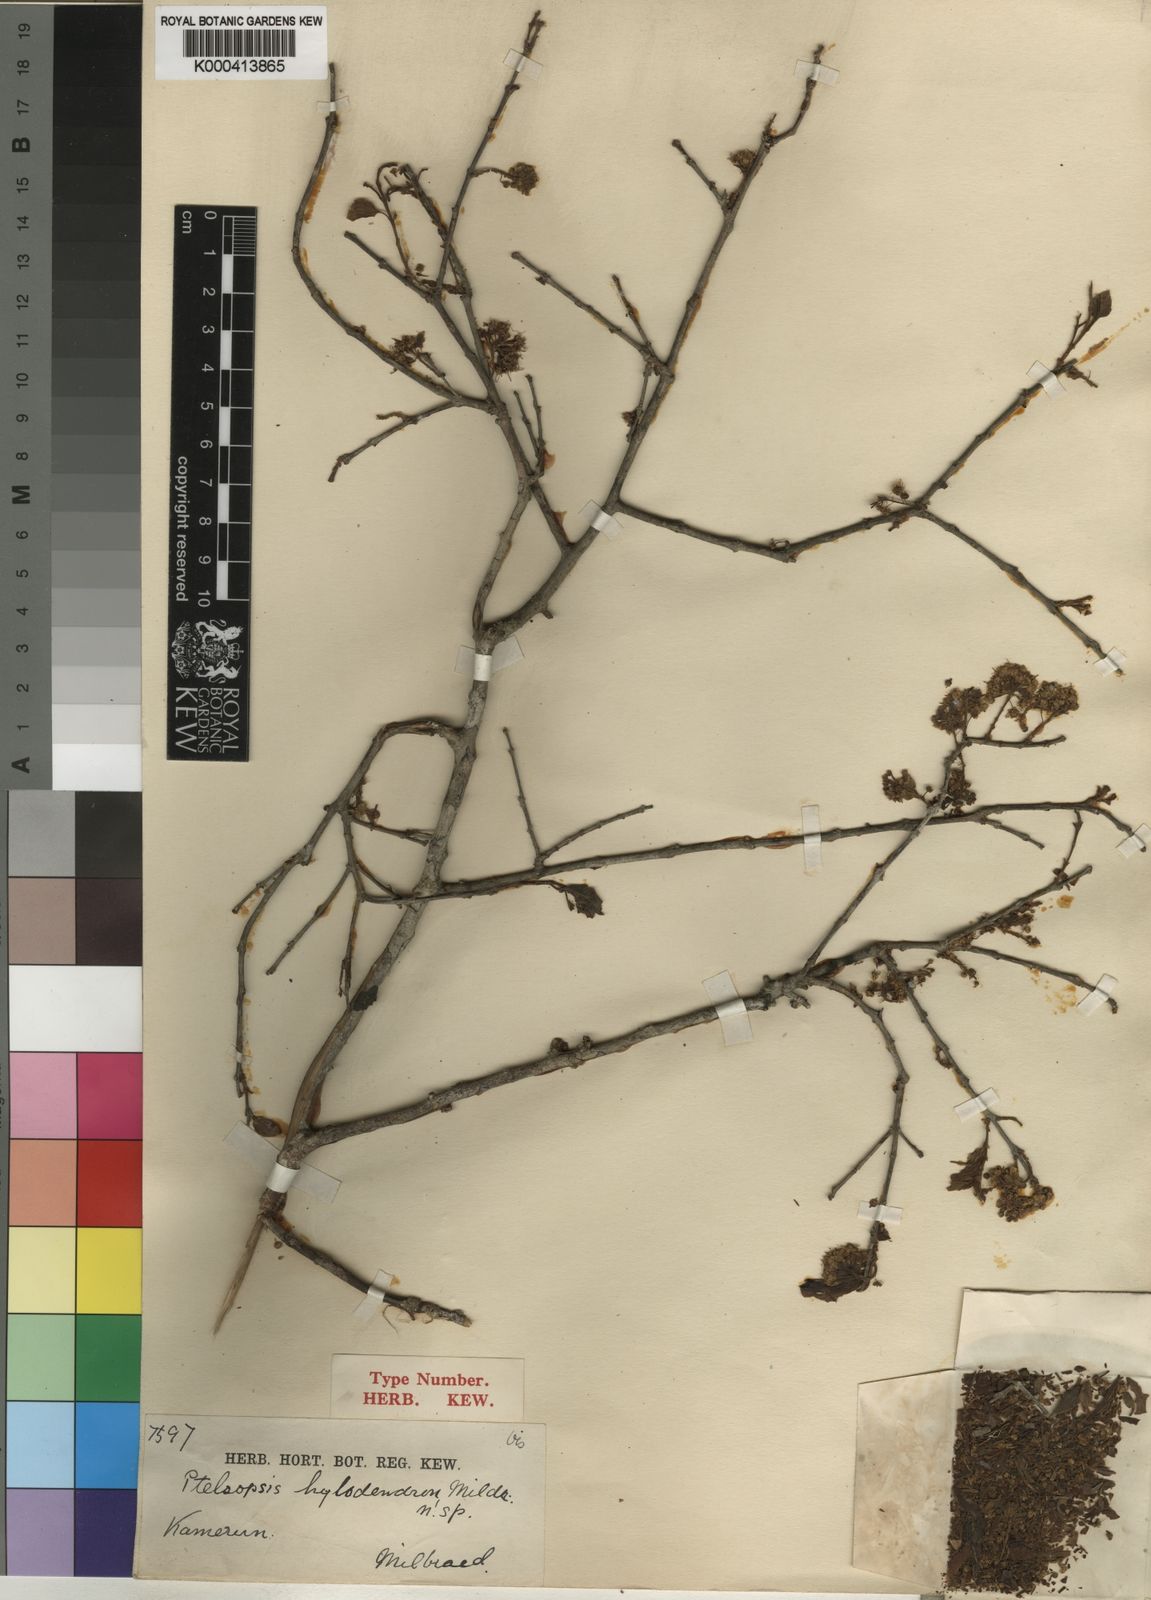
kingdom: Plantae
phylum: Tracheophyta
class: Magnoliopsida
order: Myrtales
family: Combretaceae
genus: Terminalia
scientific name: Terminalia hylodendron
